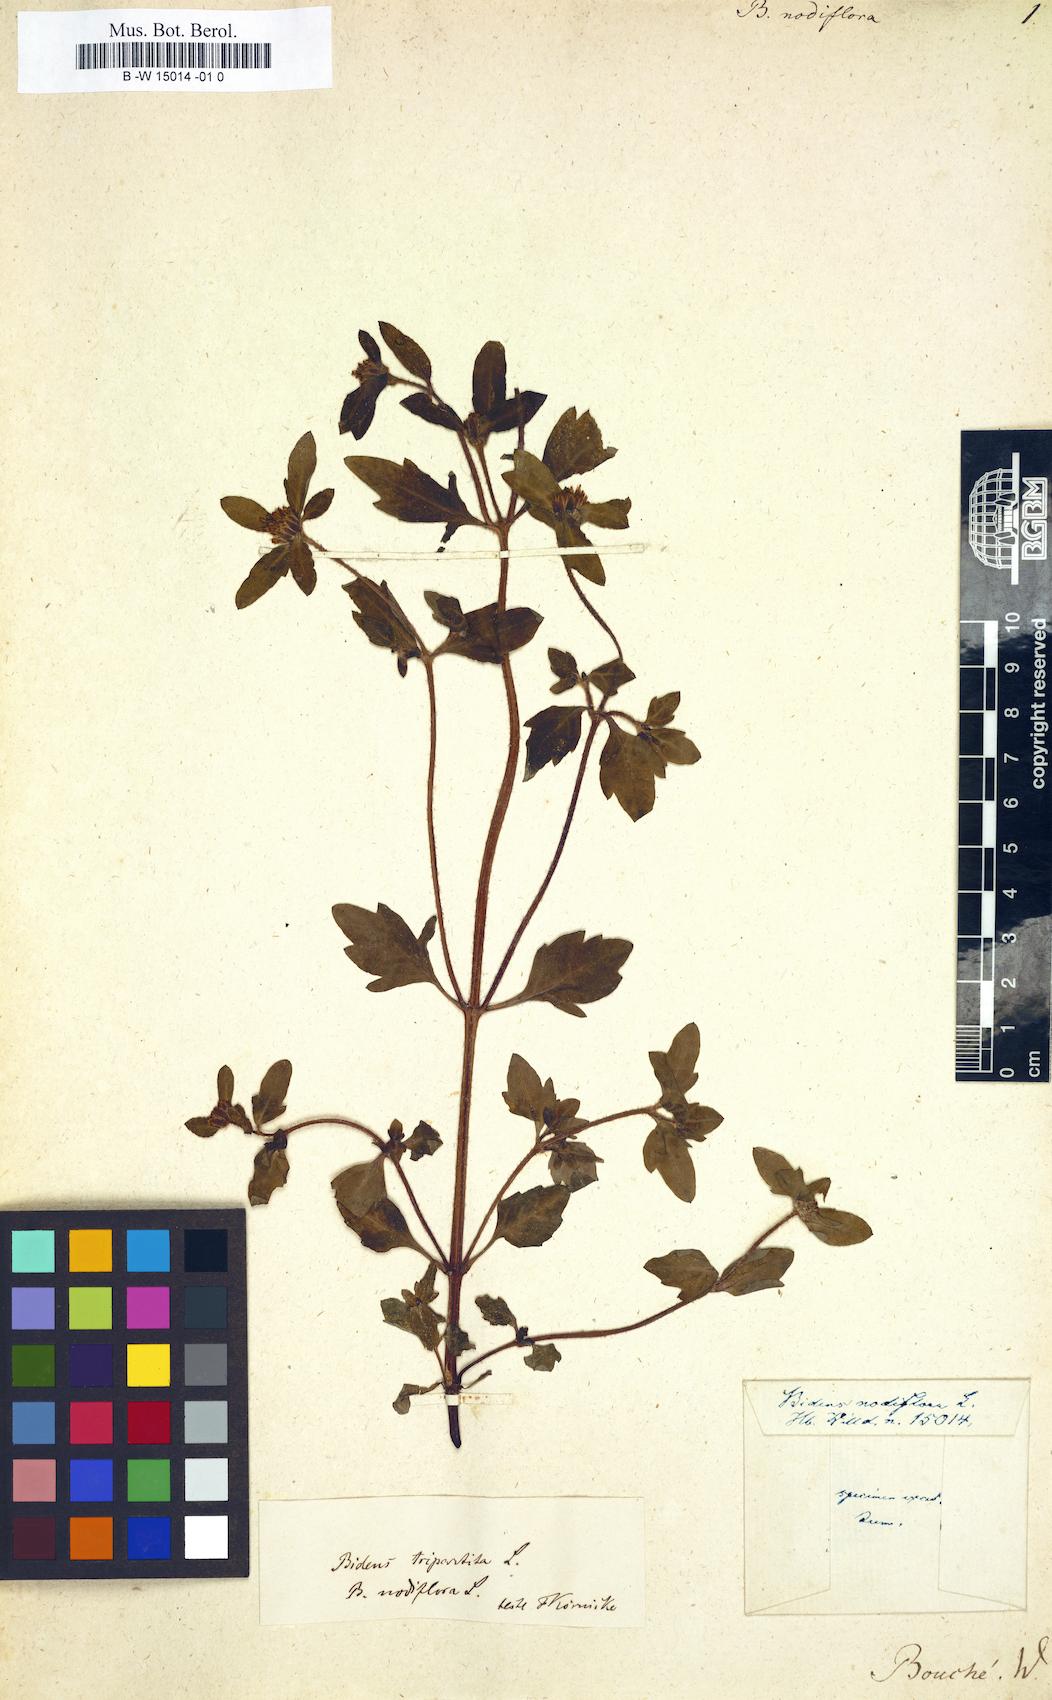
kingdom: Plantae
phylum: Tracheophyta
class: Magnoliopsida
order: Asterales
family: Asteraceae
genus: Bidens
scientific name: Bidens tripartita
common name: Trifid bur-marigold
